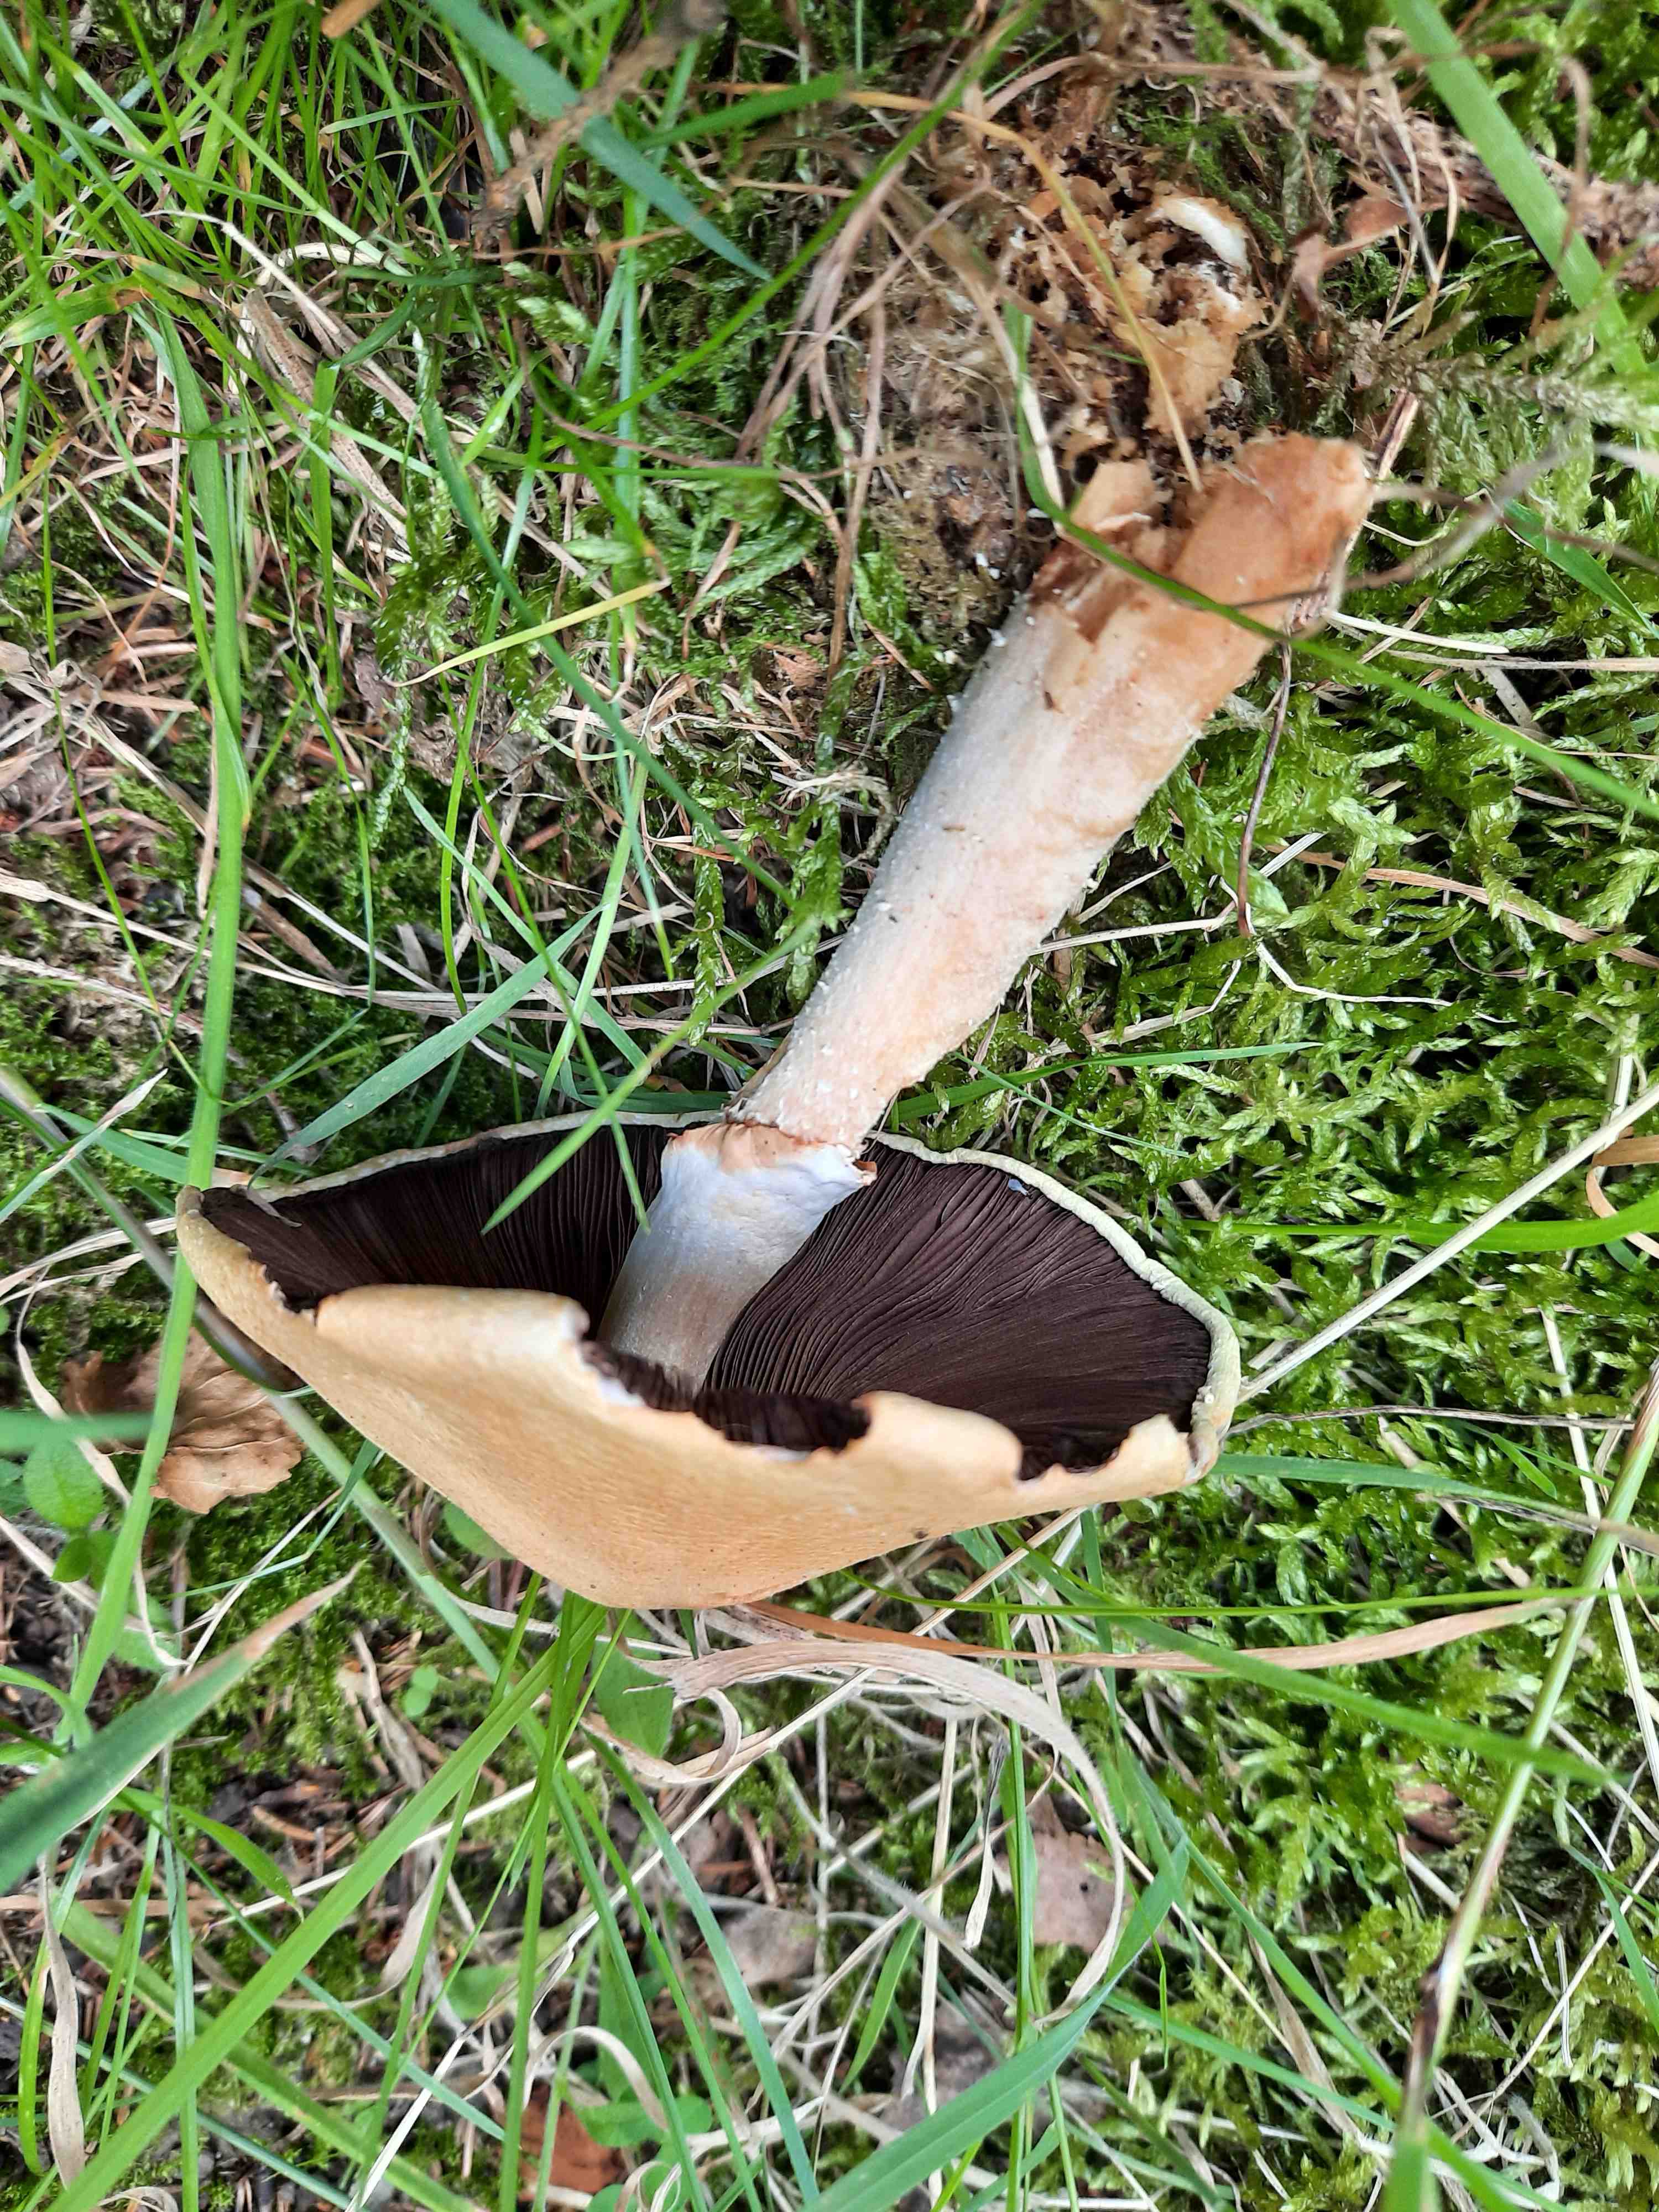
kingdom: Fungi
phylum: Basidiomycota
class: Agaricomycetes
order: Agaricales
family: Agaricaceae
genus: Agaricus
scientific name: Agaricus sylvicola
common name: gulhvid champignon
